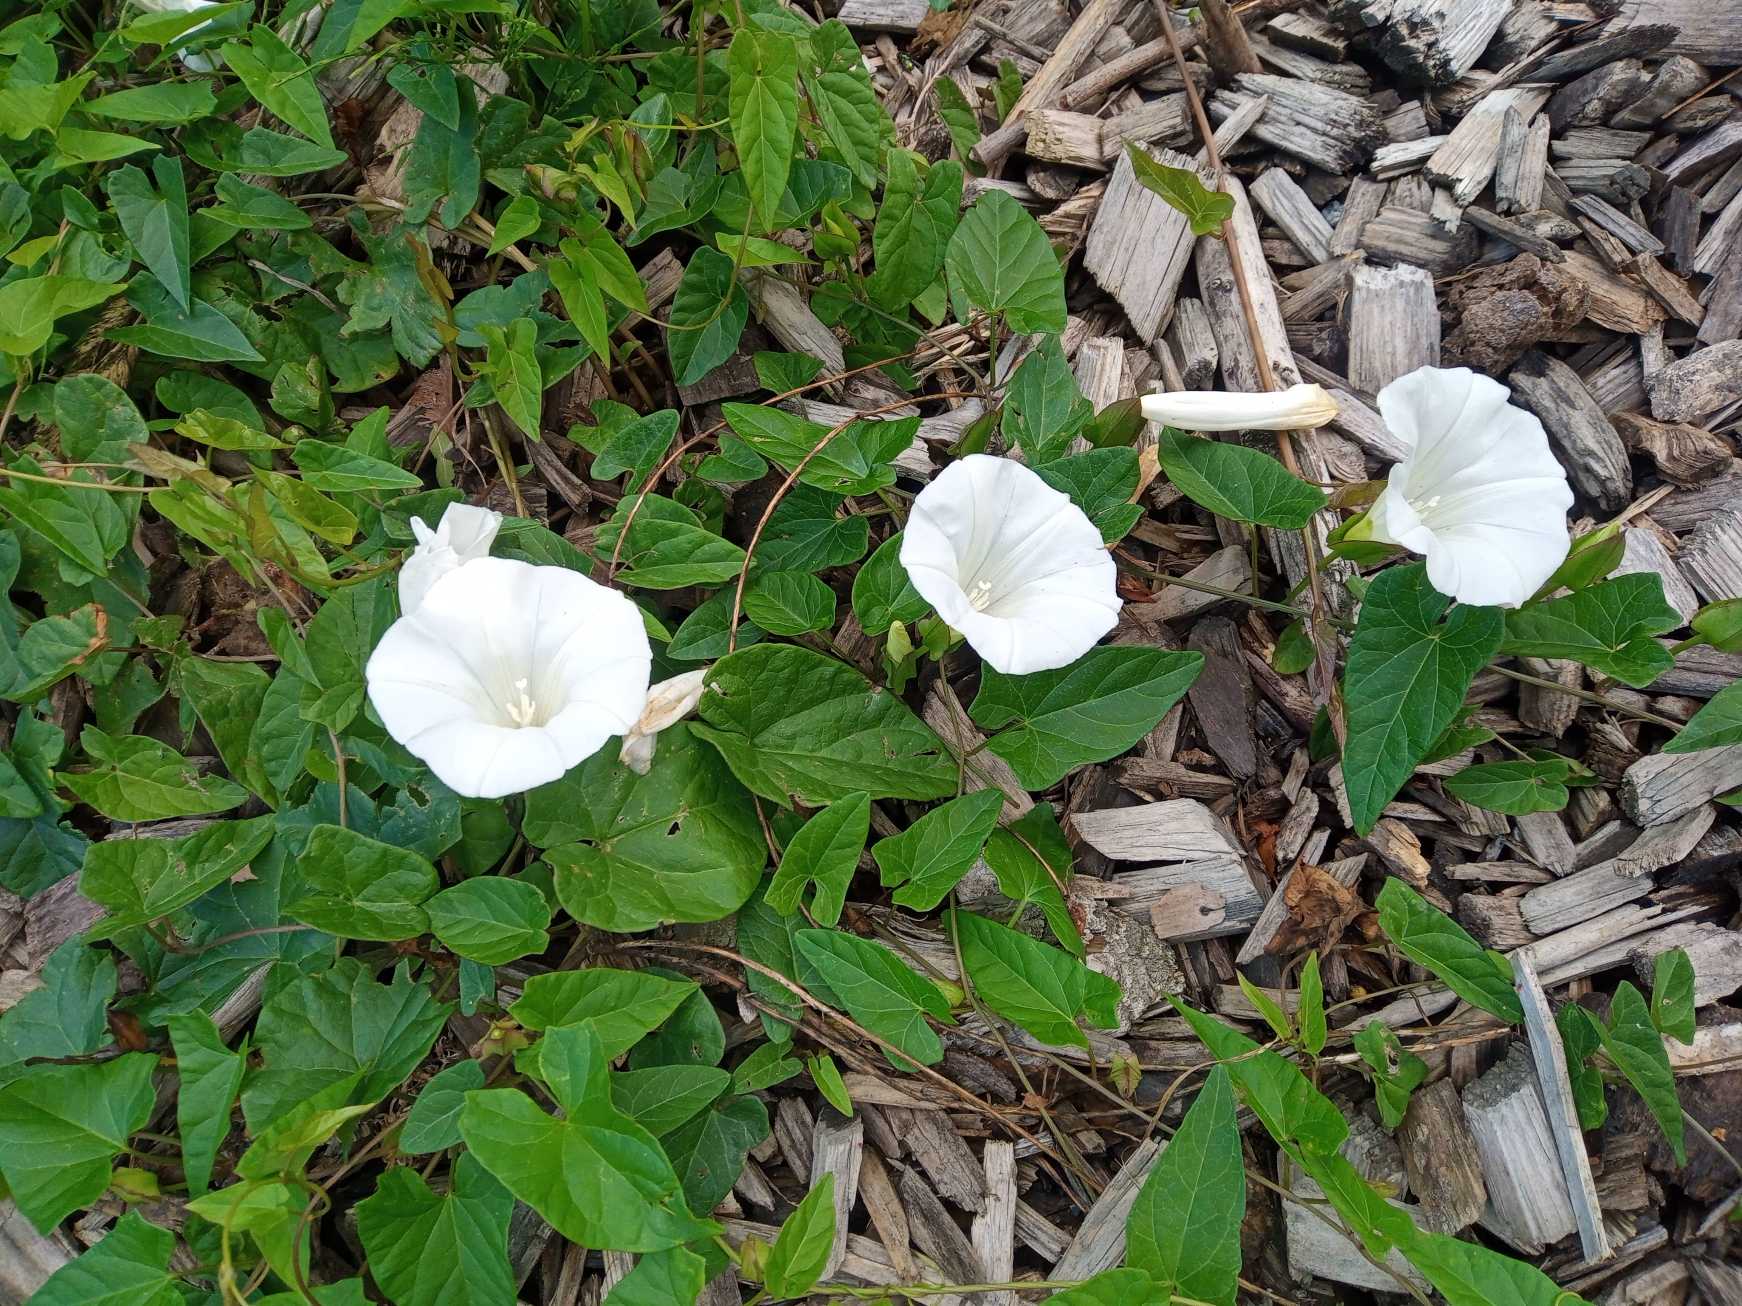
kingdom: Plantae
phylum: Tracheophyta
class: Magnoliopsida
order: Solanales
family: Convolvulaceae
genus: Calystegia
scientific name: Calystegia sepium
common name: Gærde-snerle
